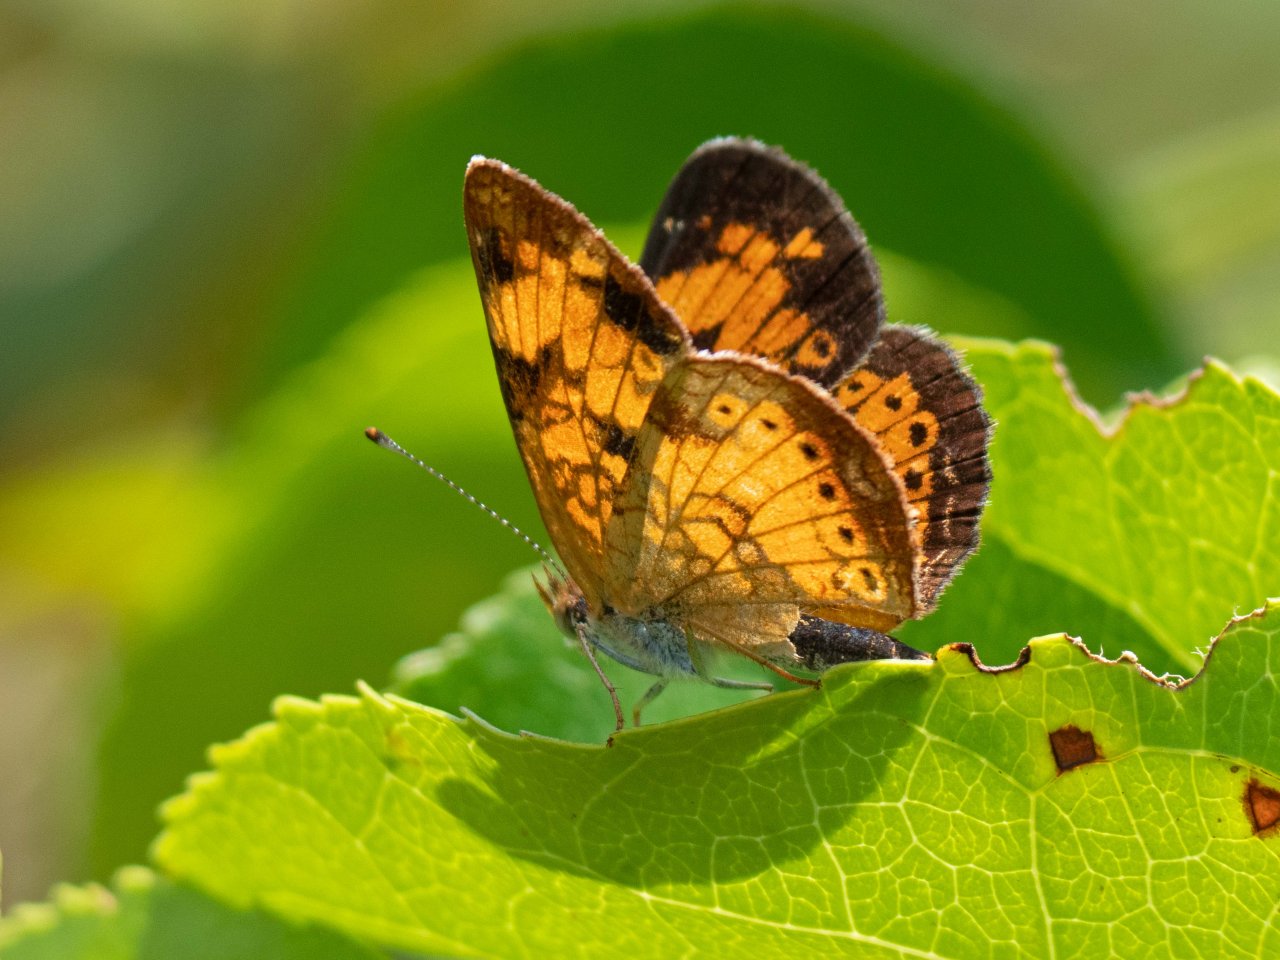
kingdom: Animalia
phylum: Arthropoda
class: Insecta
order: Lepidoptera
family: Nymphalidae
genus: Phyciodes
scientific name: Phyciodes tharos
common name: Pearl Crescent
